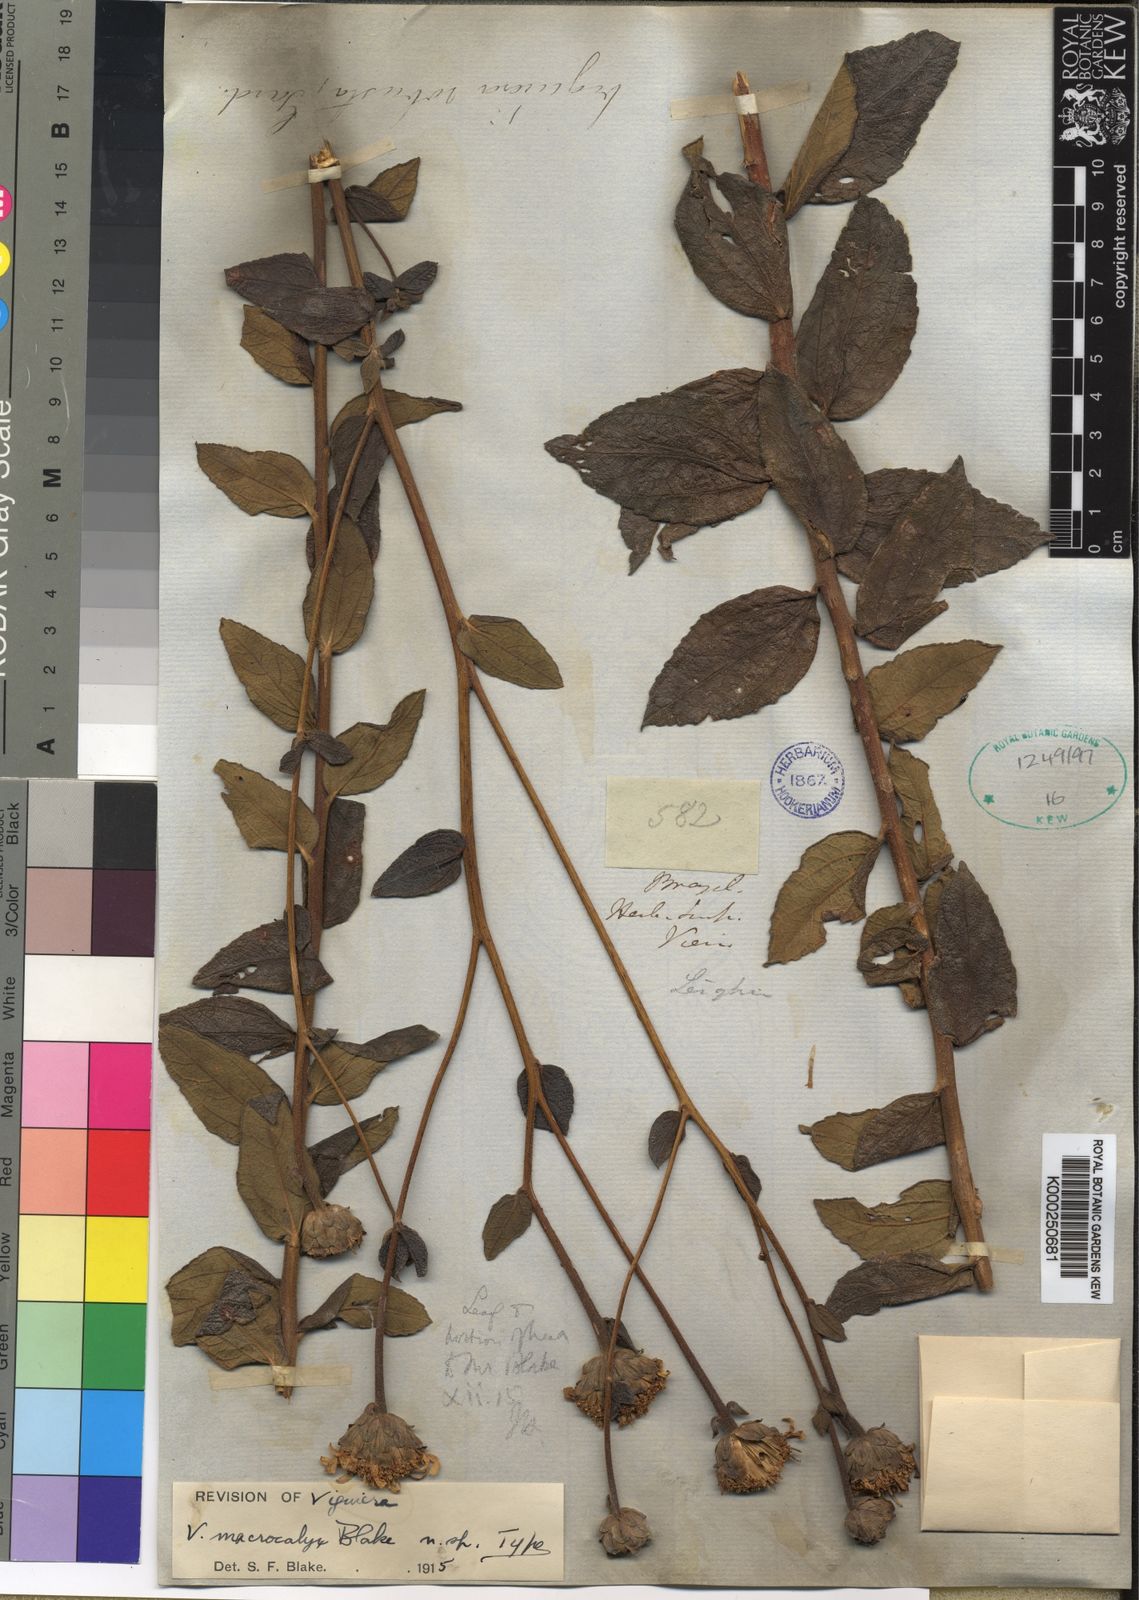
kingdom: Plantae
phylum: Tracheophyta
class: Magnoliopsida
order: Asterales
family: Asteraceae
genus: Aldama
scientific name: Aldama robusta
